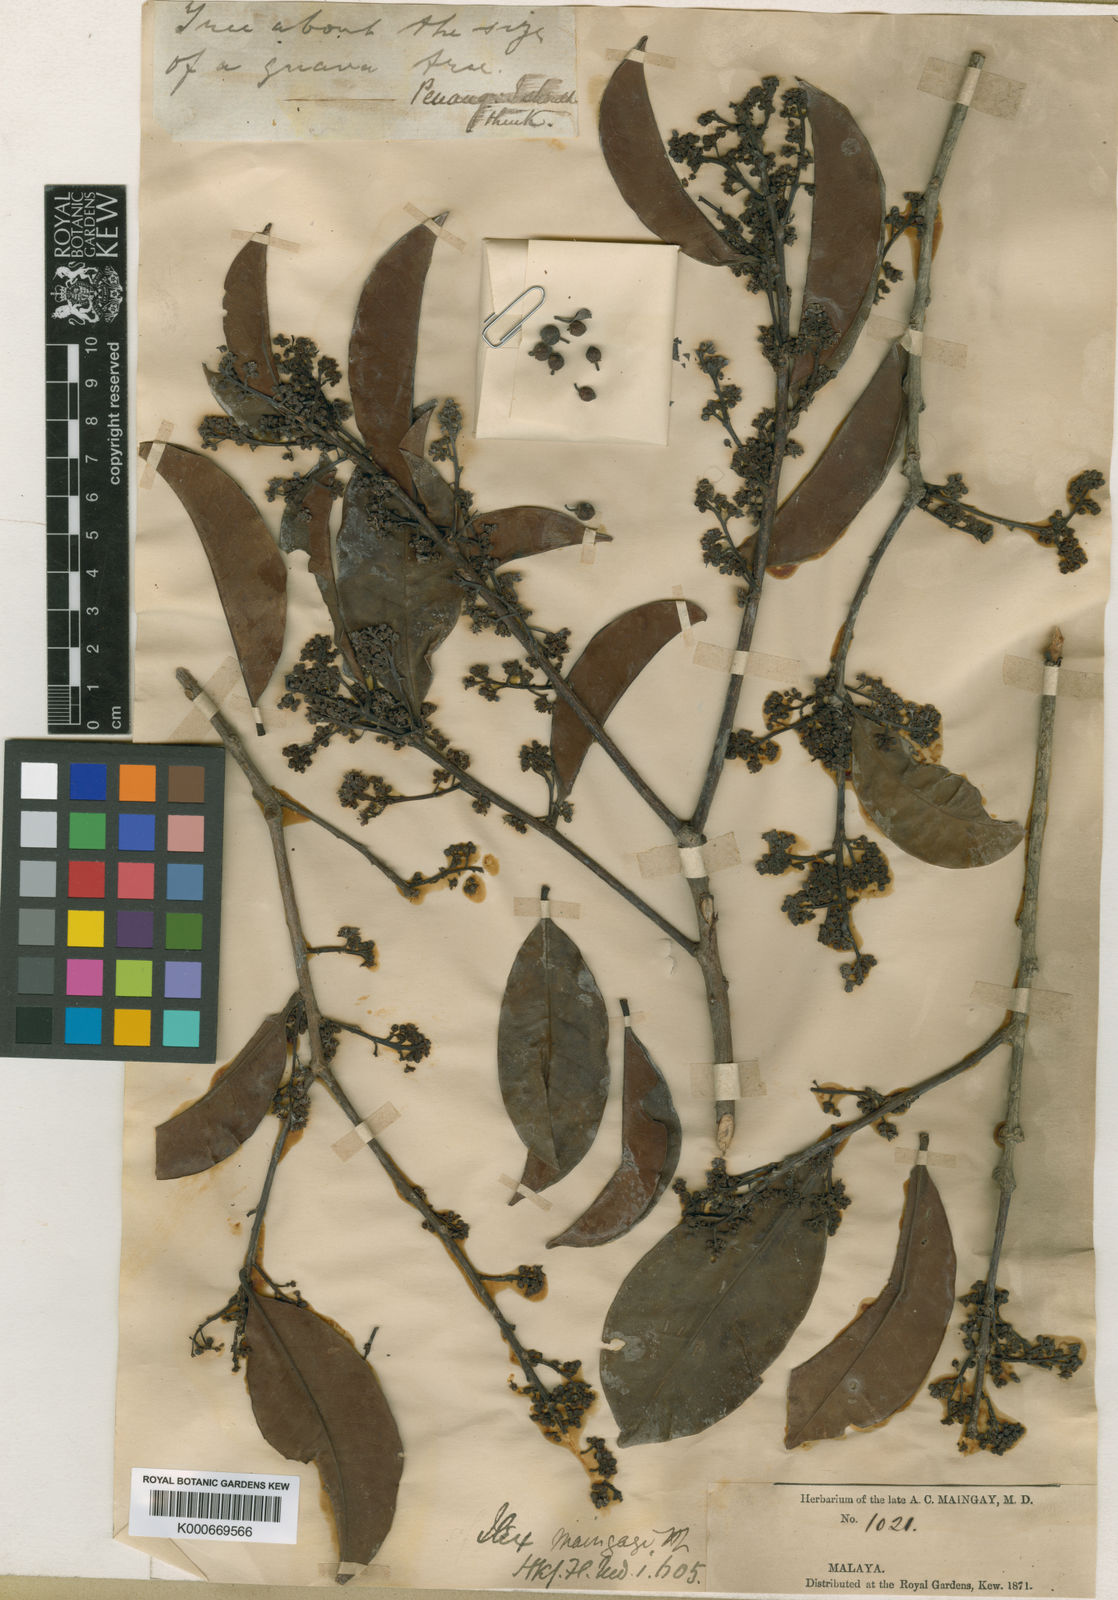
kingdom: Plantae
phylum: Tracheophyta
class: Magnoliopsida
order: Aquifoliales
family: Aquifoliaceae
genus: Ilex
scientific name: Ilex maingayi
